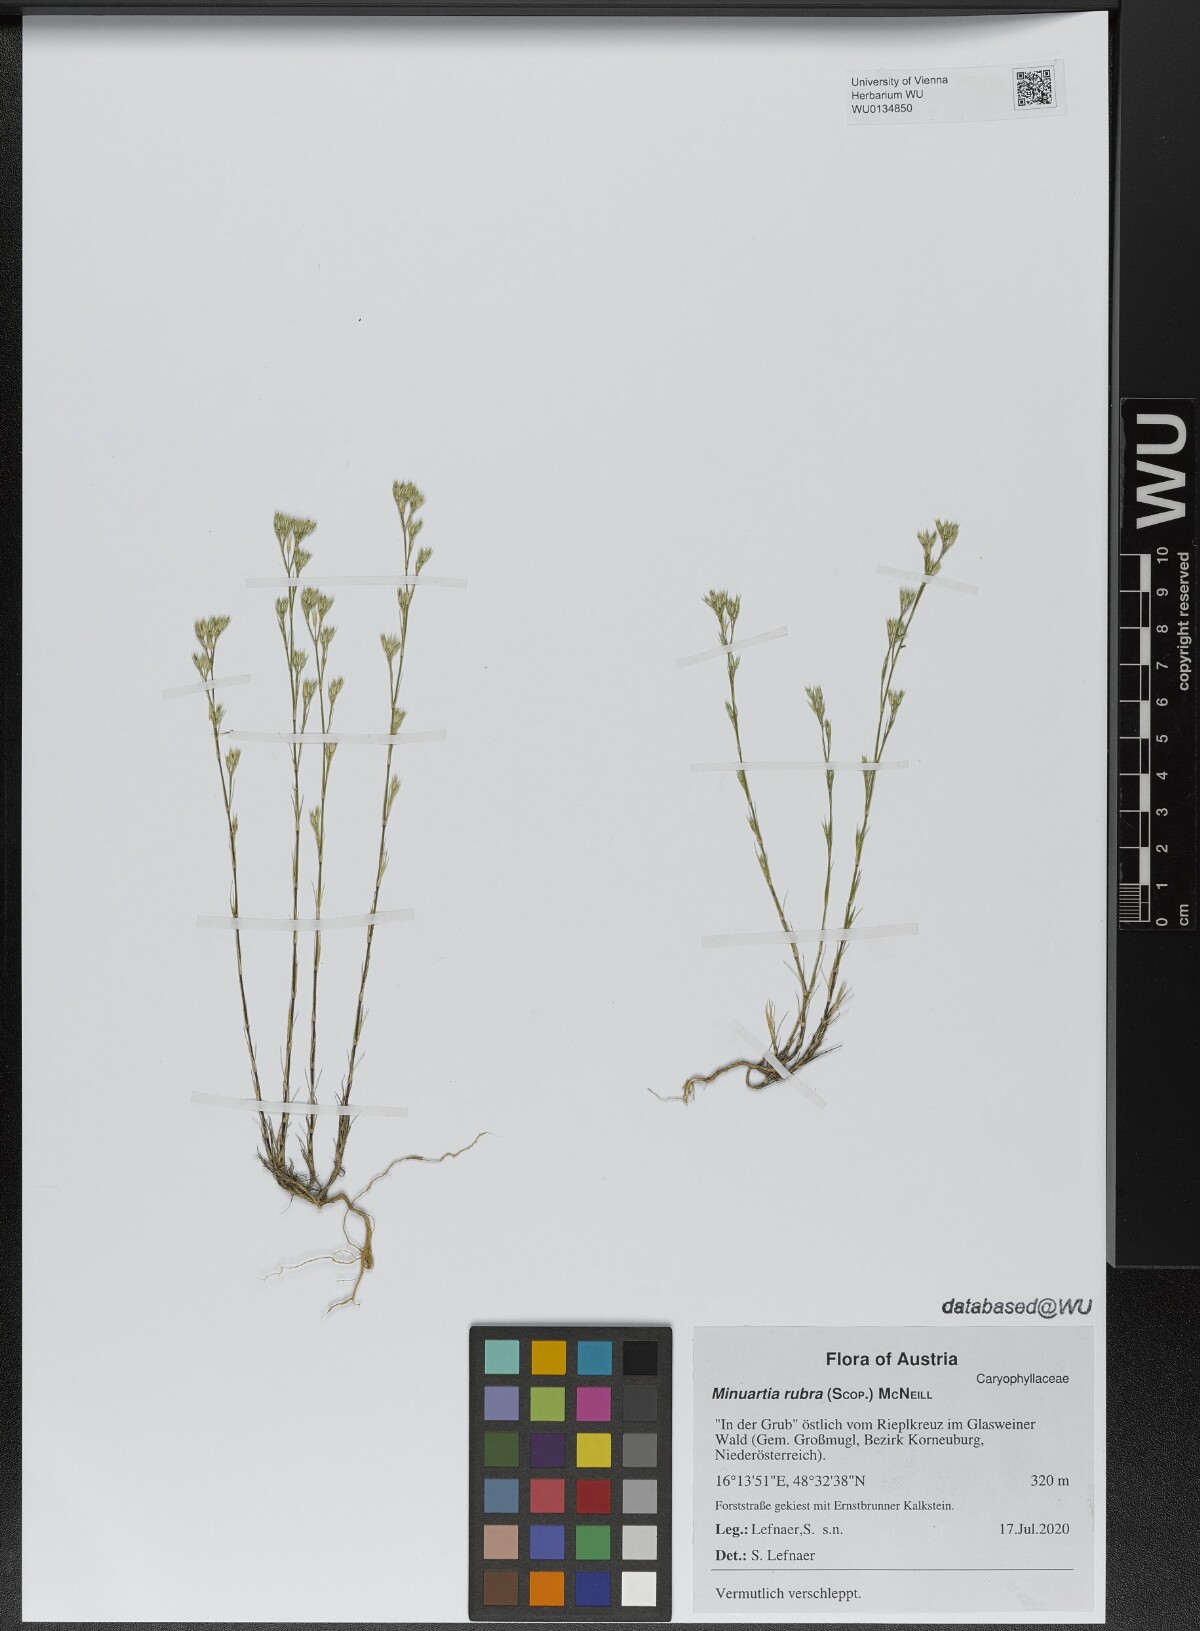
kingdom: Plantae
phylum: Tracheophyta
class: Magnoliopsida
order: Caryophyllales
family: Caryophyllaceae
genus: Minuartia
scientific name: Minuartia mucronata
